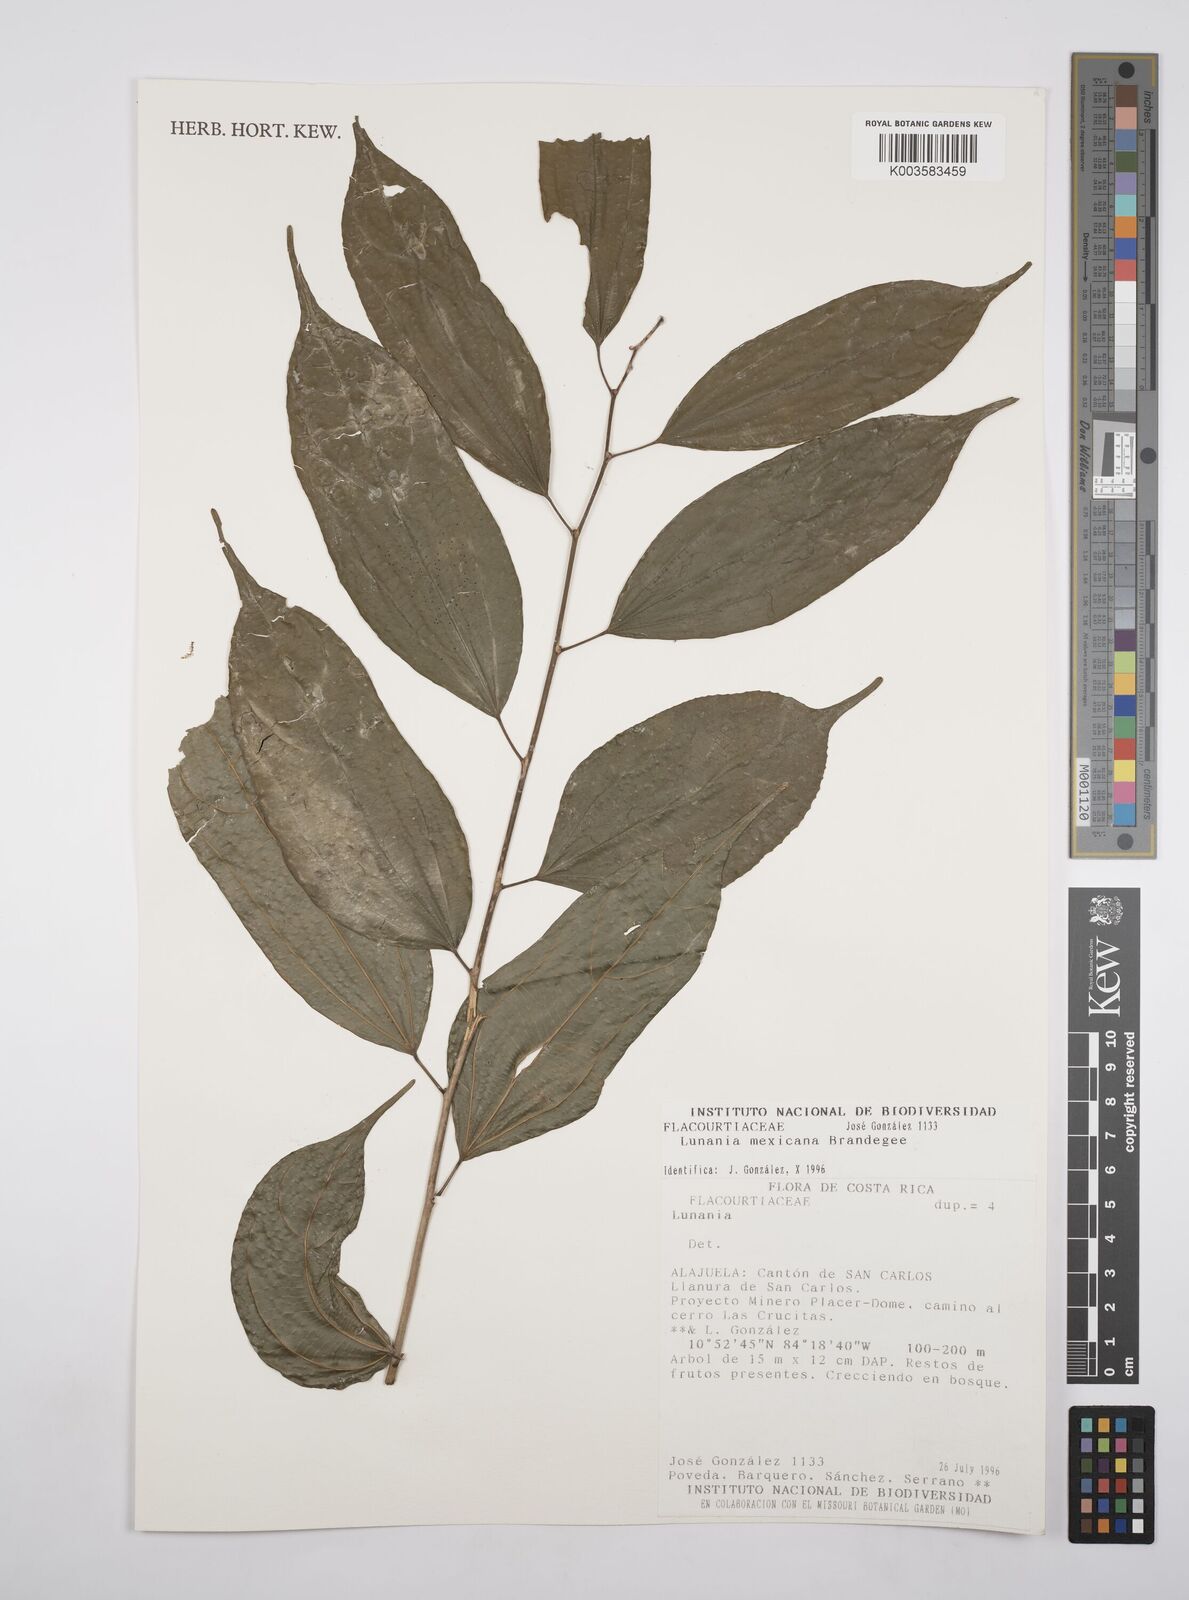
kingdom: Plantae
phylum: Tracheophyta
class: Magnoliopsida
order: Malpighiales
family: Salicaceae
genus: Lunania
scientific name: Lunania mexicana
